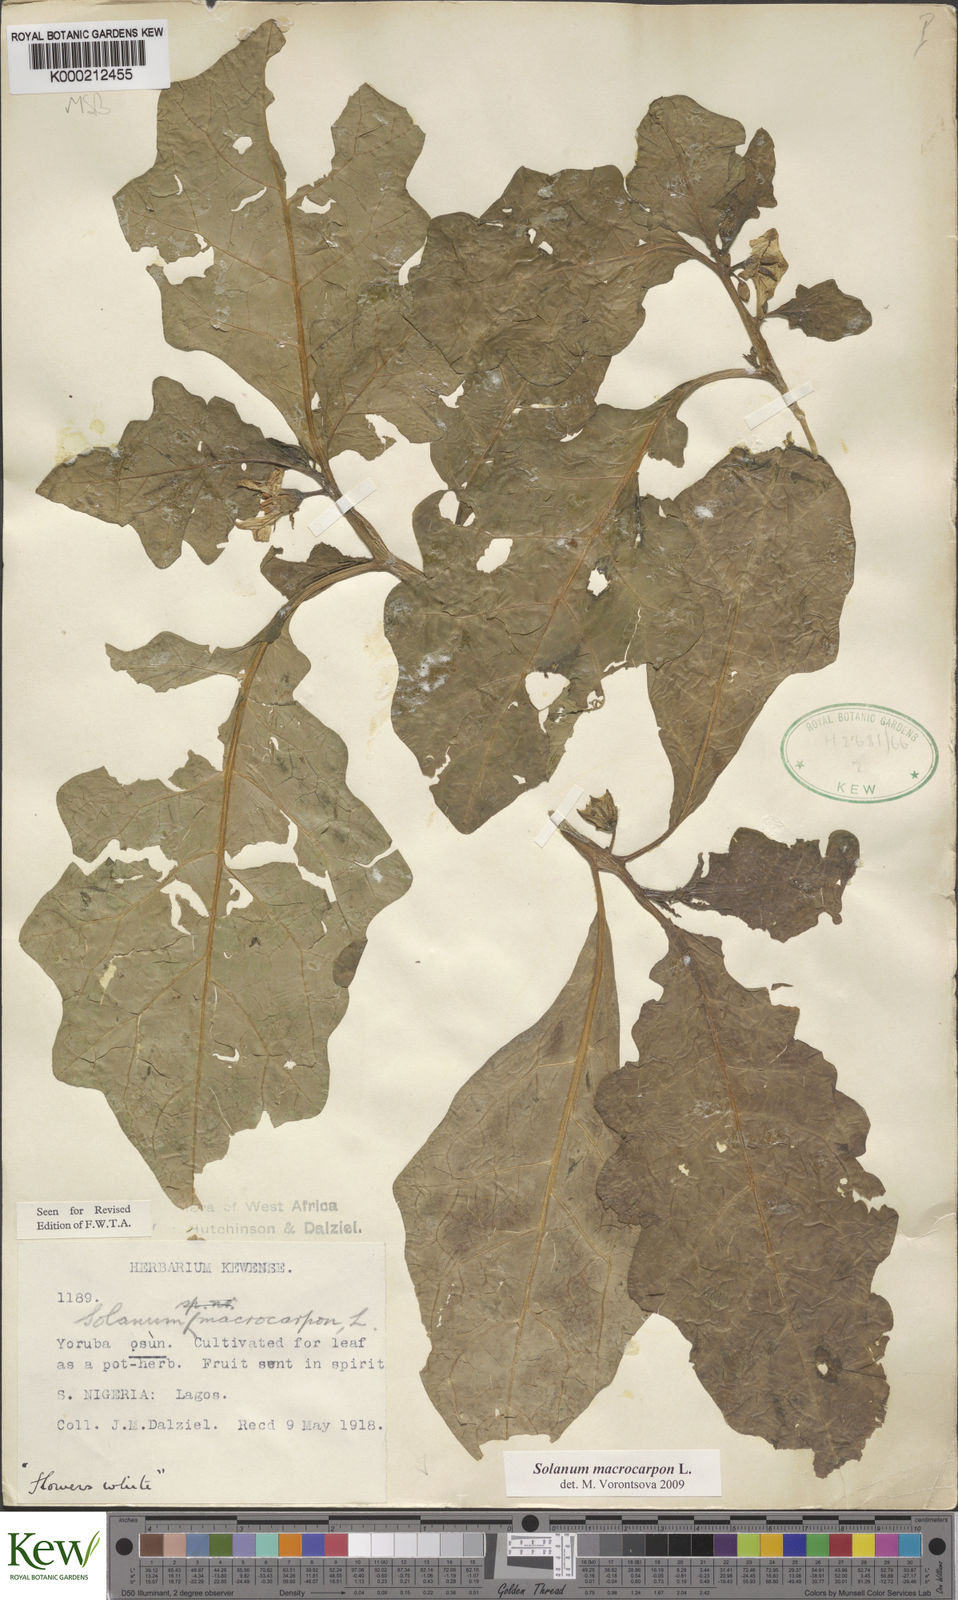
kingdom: Plantae
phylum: Tracheophyta
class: Magnoliopsida
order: Solanales
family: Solanaceae
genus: Solanum
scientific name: Solanum macrocarpon
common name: African eggplant
